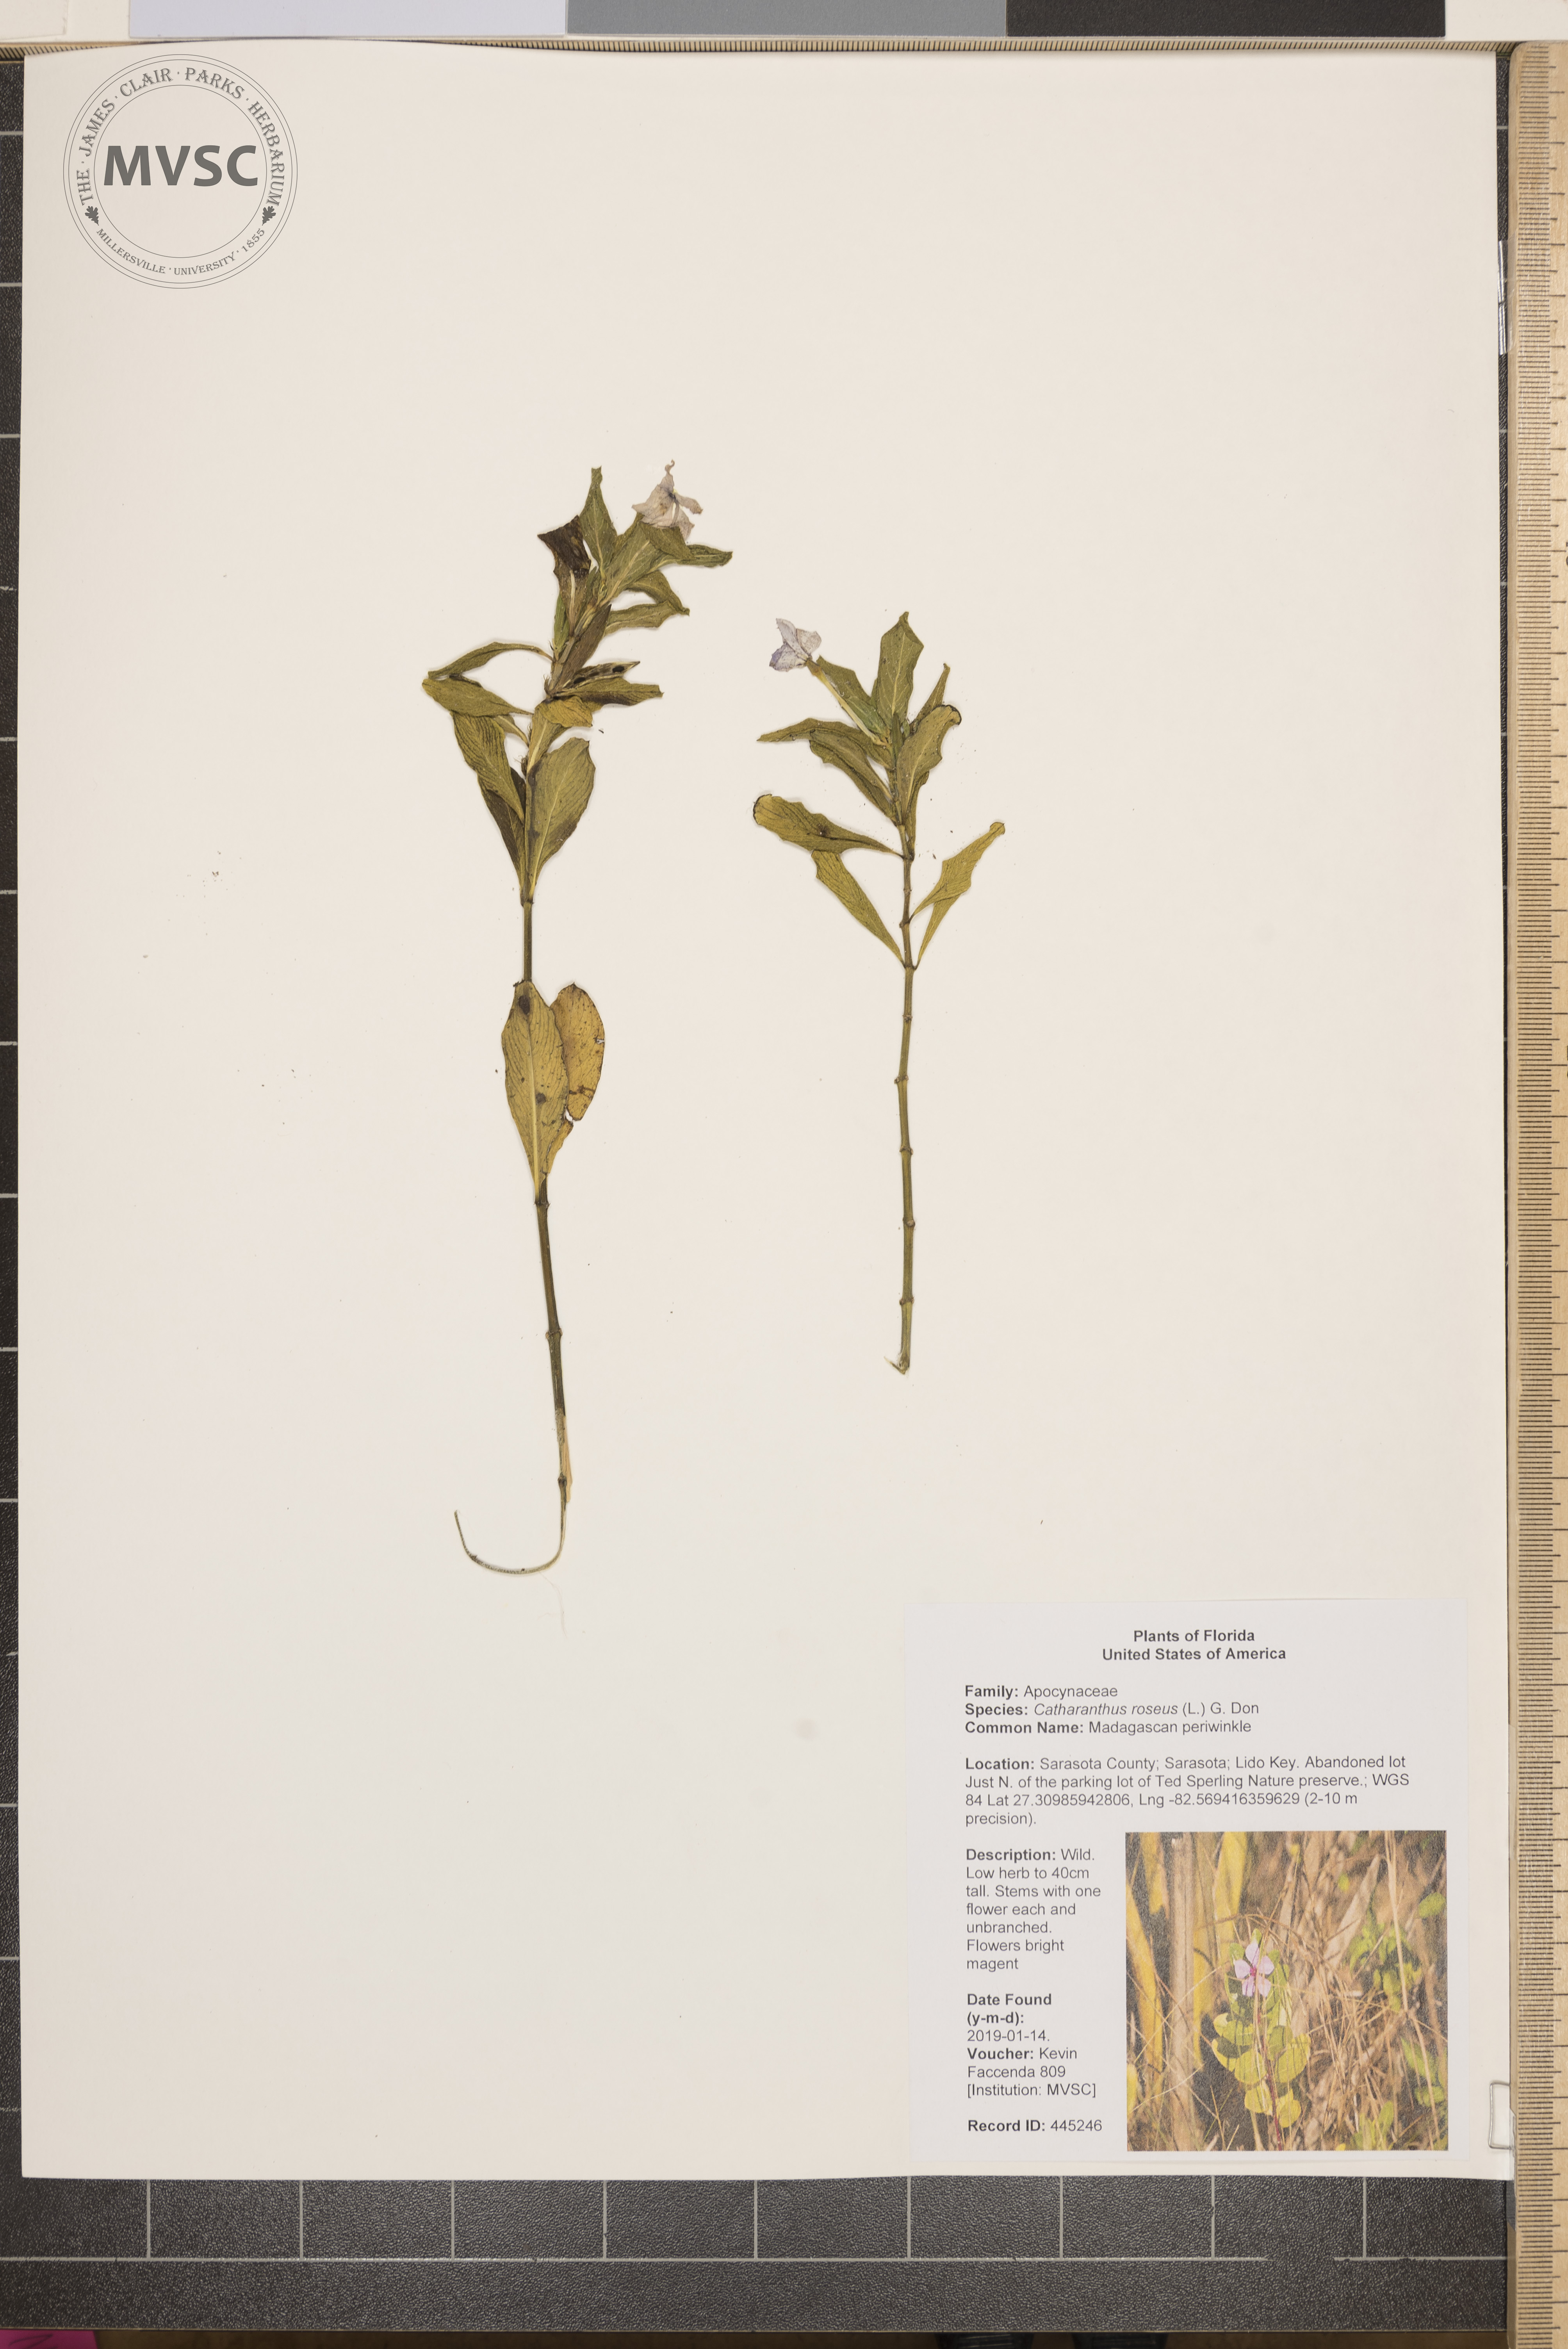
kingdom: Plantae
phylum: Tracheophyta
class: Magnoliopsida
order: Gentianales
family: Apocynaceae
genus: Catharanthus
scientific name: Catharanthus roseus
